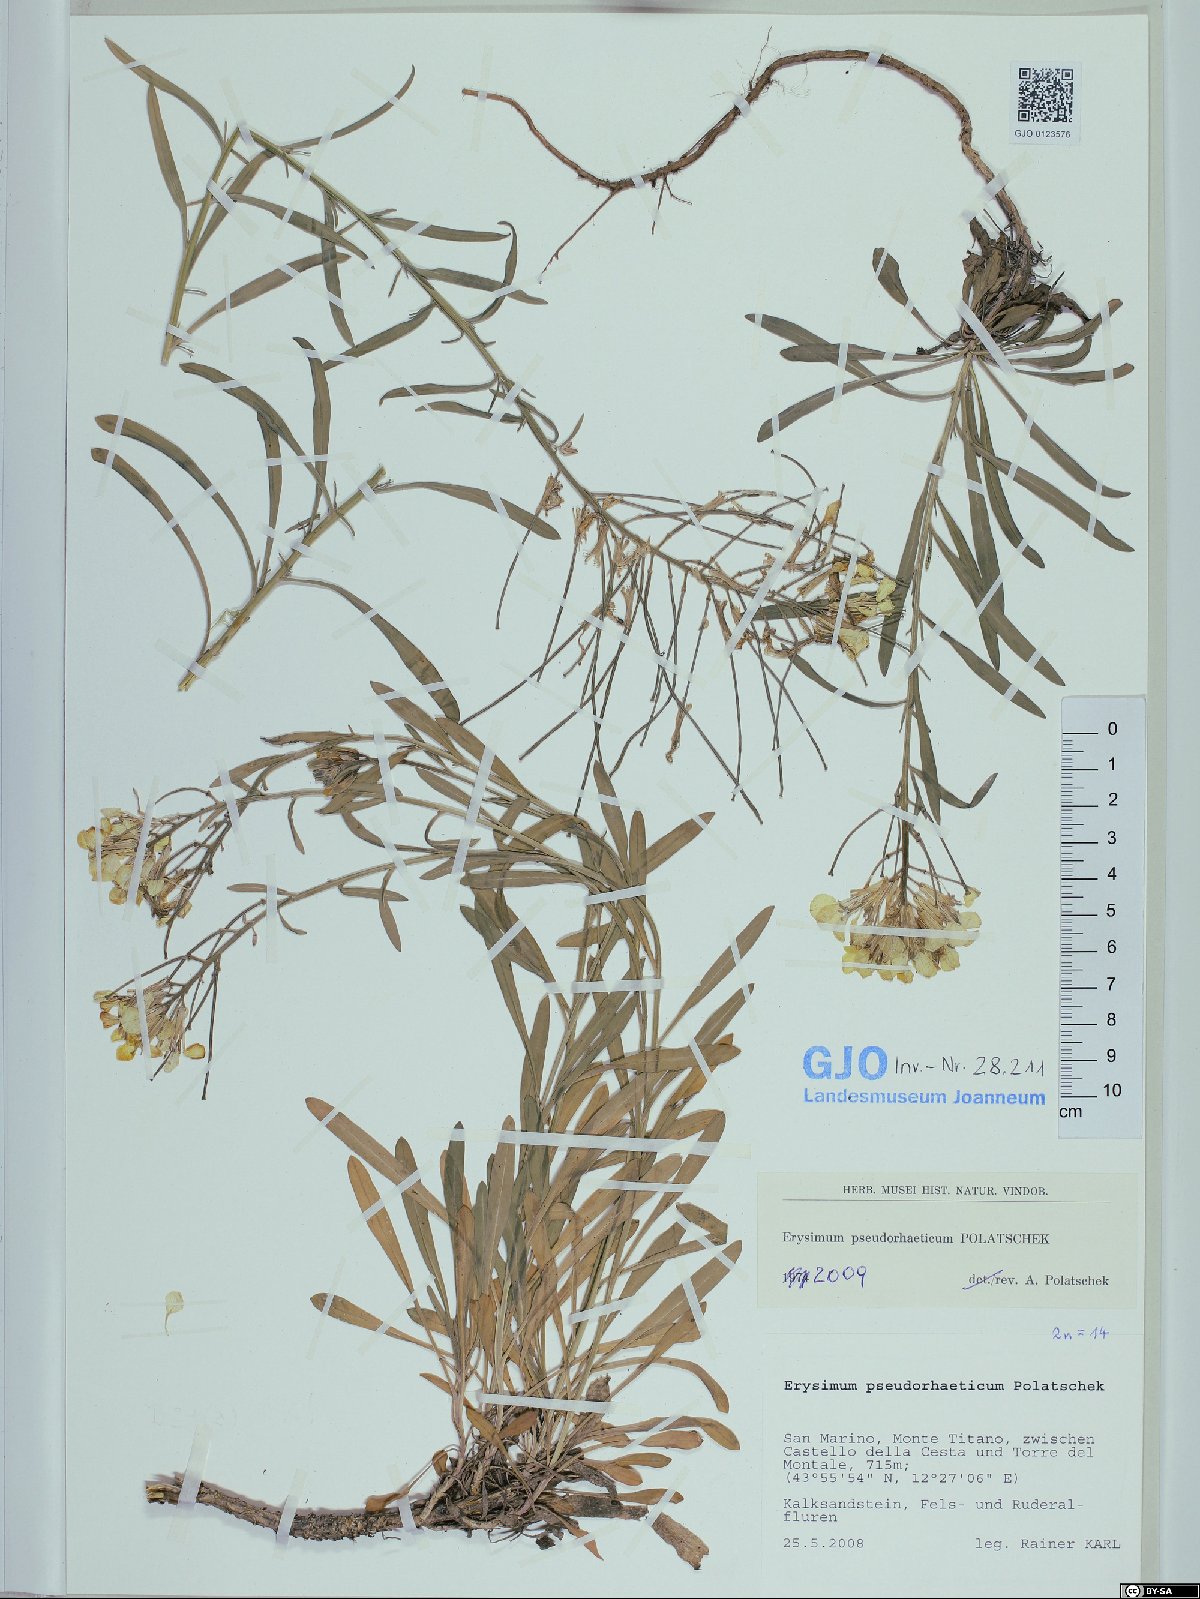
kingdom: Plantae
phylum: Tracheophyta
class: Magnoliopsida
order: Brassicales
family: Brassicaceae
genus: Erysimum
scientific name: Erysimum pseudorhaeticum
